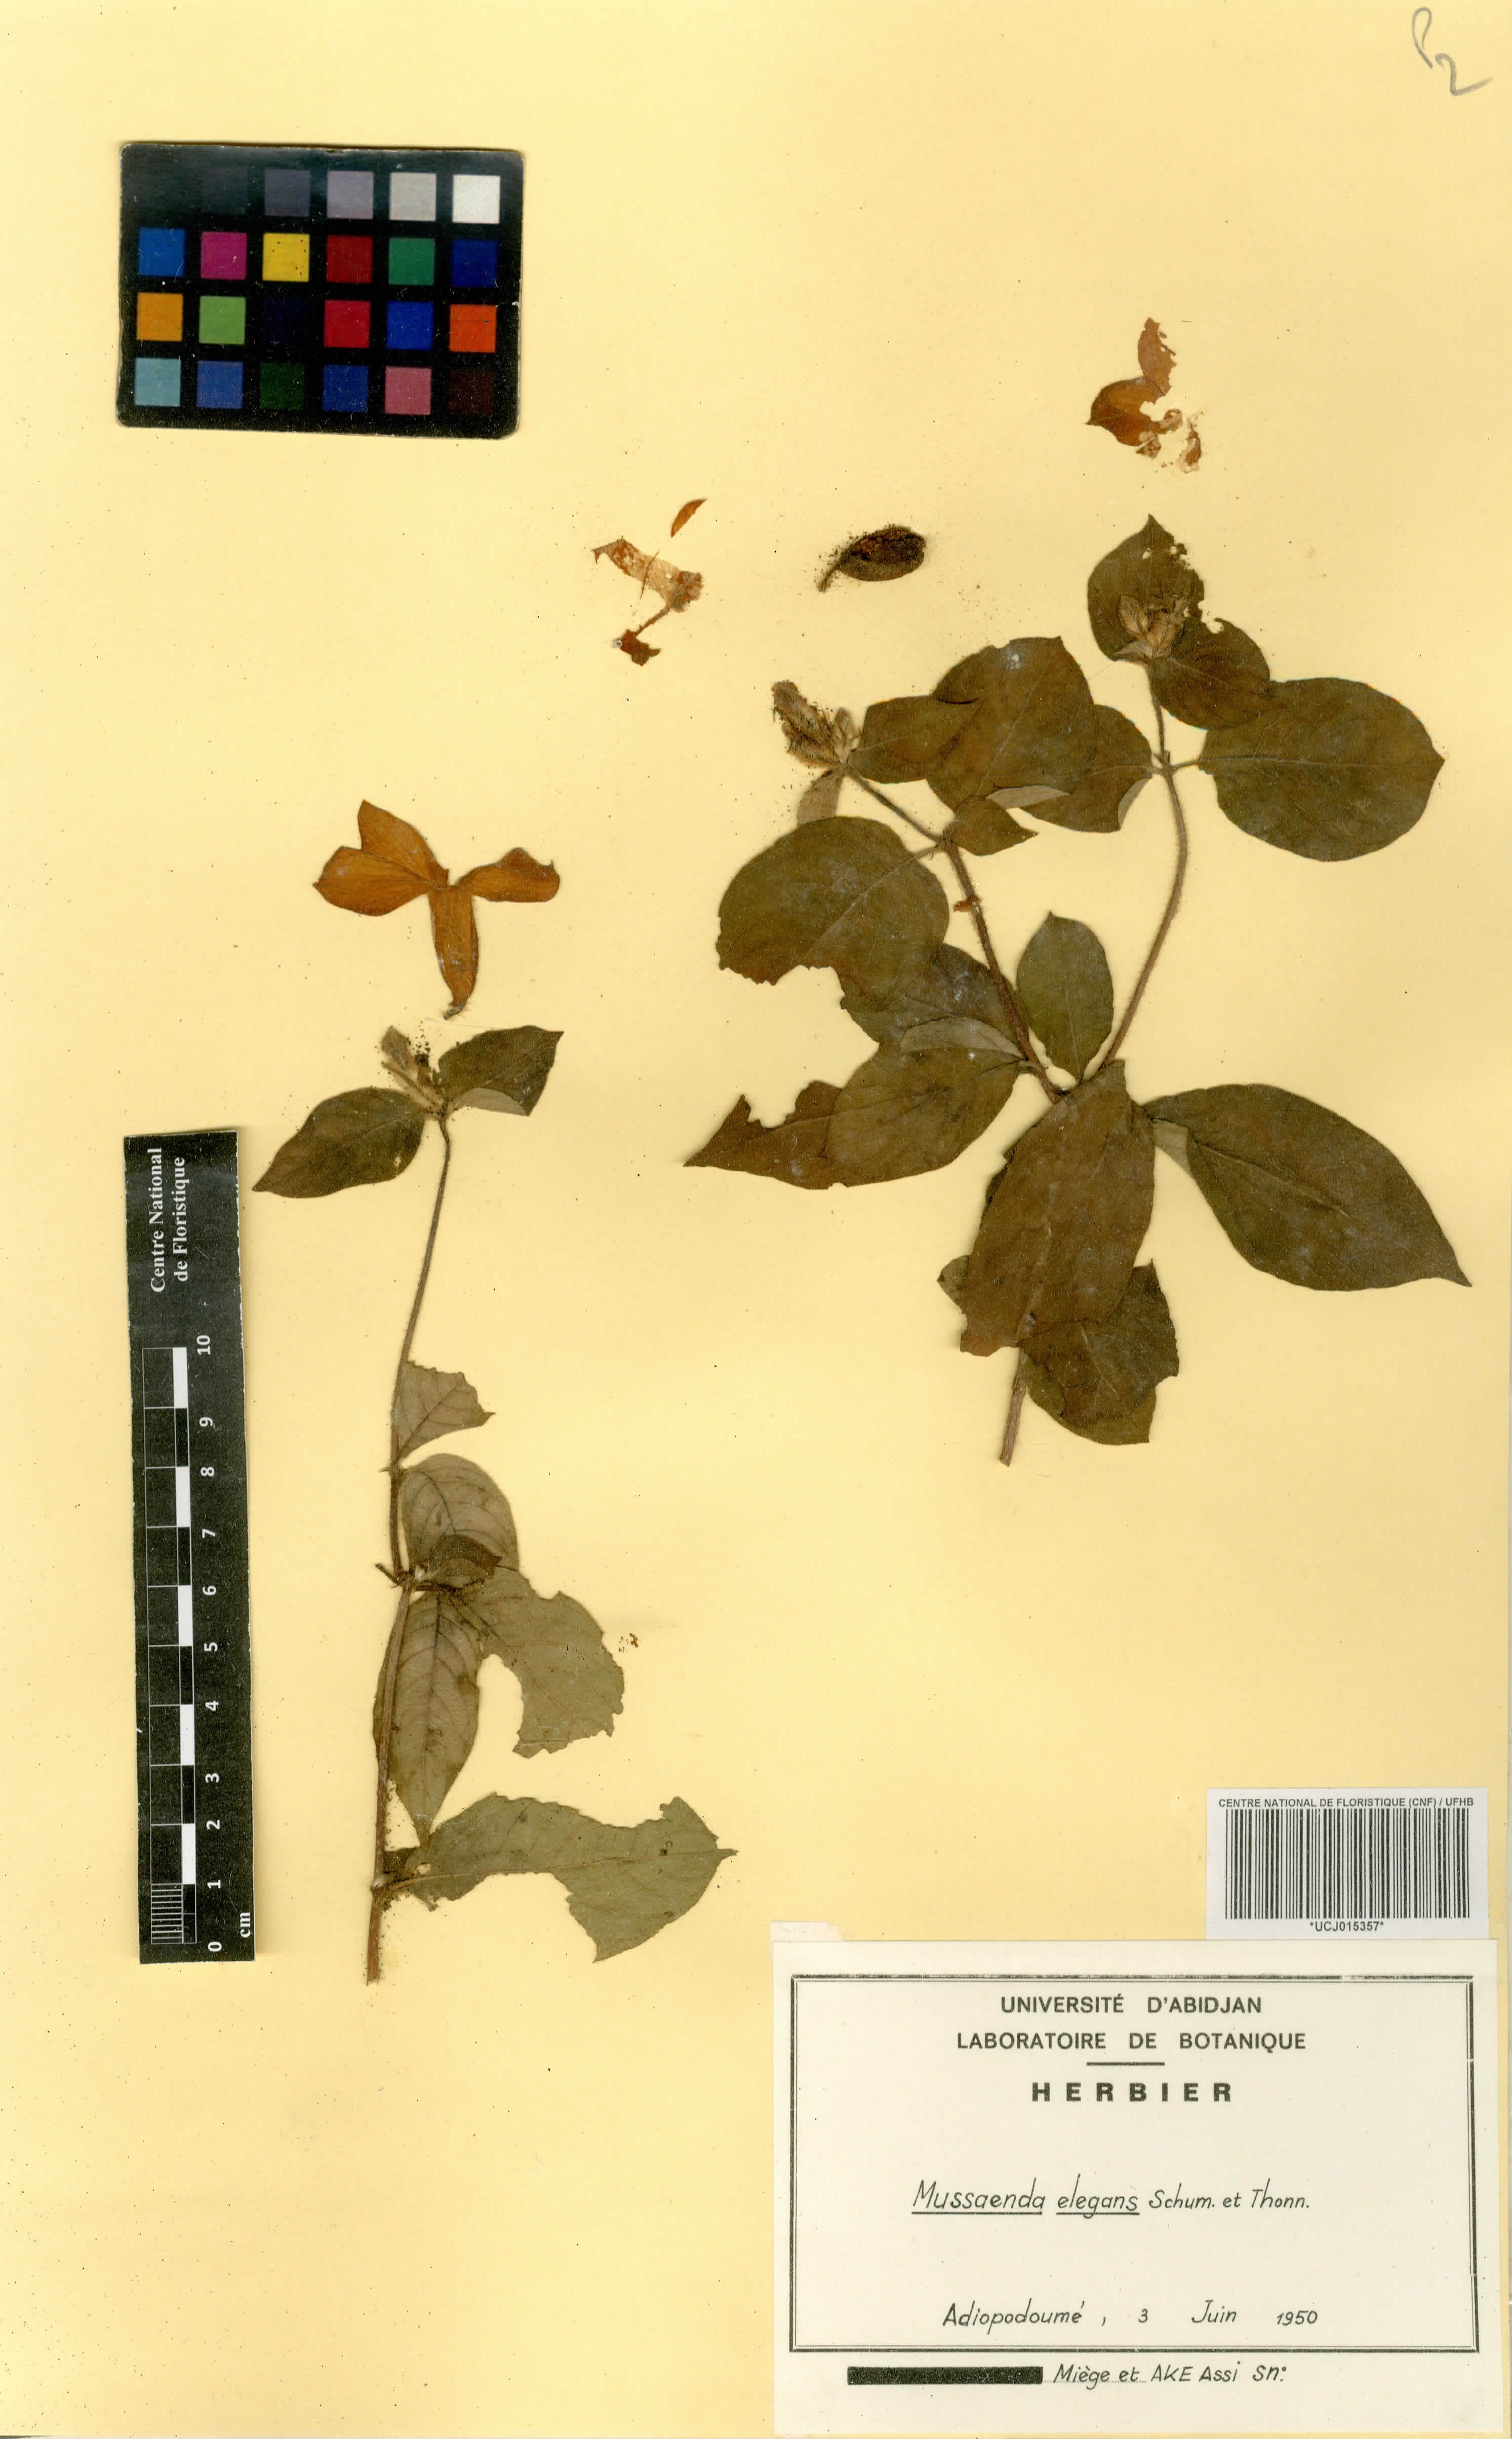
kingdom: Plantae
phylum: Tracheophyta
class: Magnoliopsida
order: Gentianales
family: Rubiaceae
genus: Mussaenda
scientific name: Mussaenda elegans
